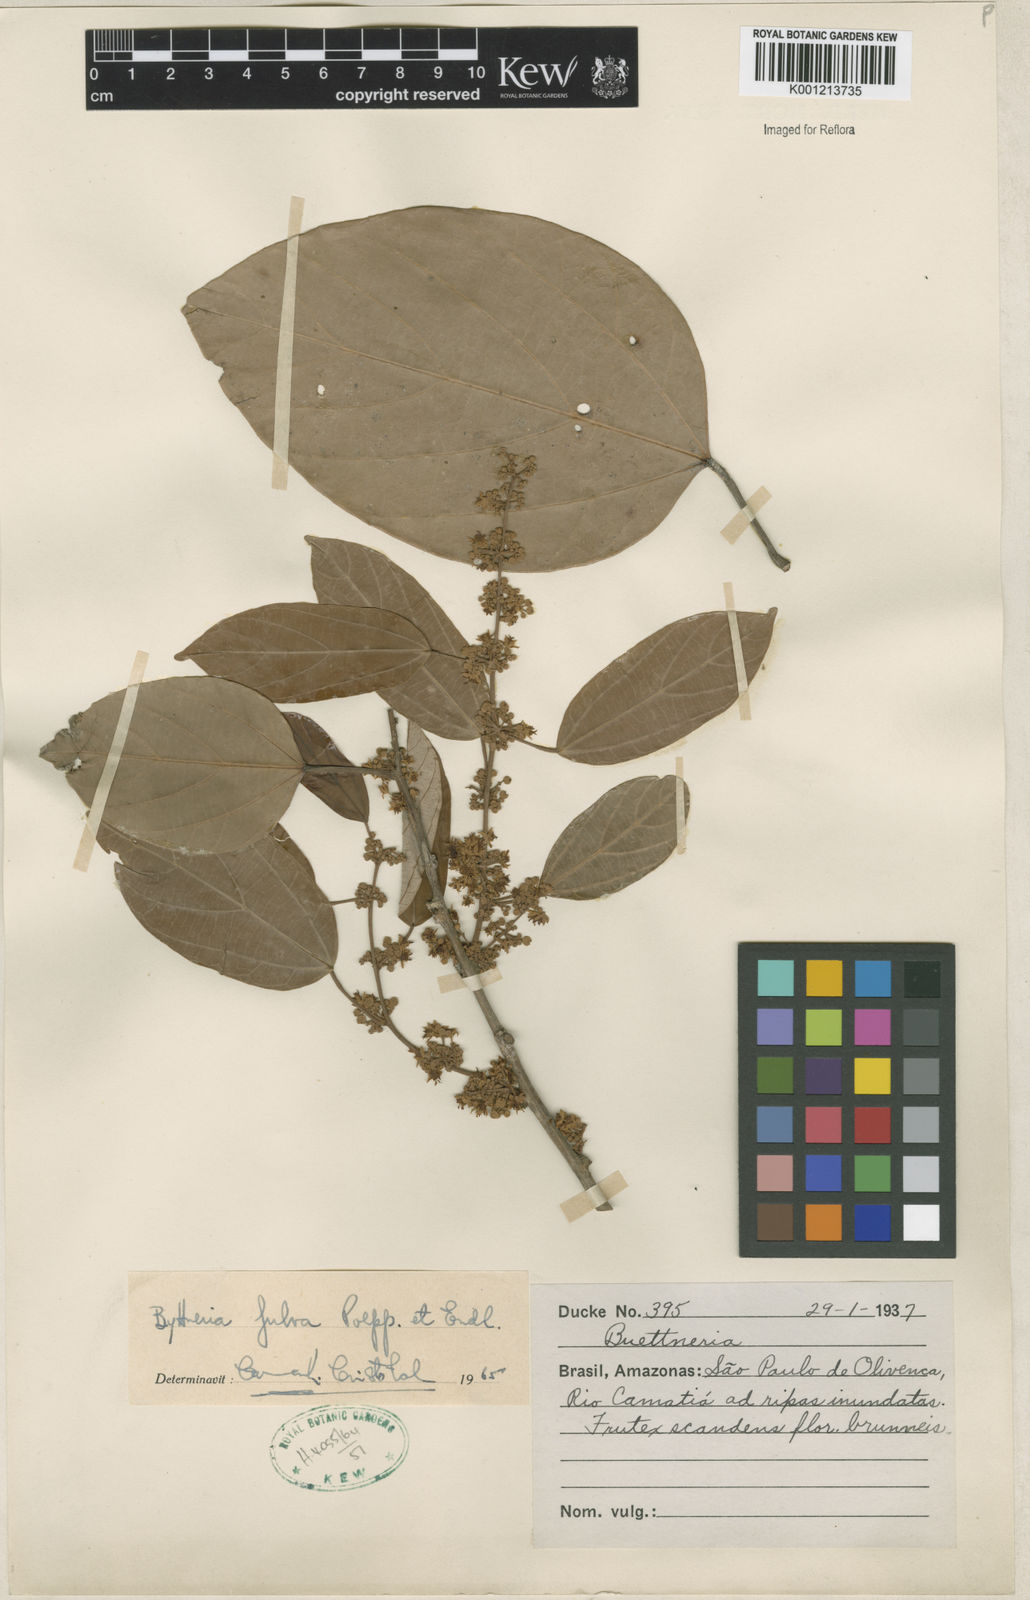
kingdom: Plantae
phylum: Tracheophyta
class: Magnoliopsida
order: Malvales
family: Malvaceae
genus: Byttneria
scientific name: Byttneria fulva
